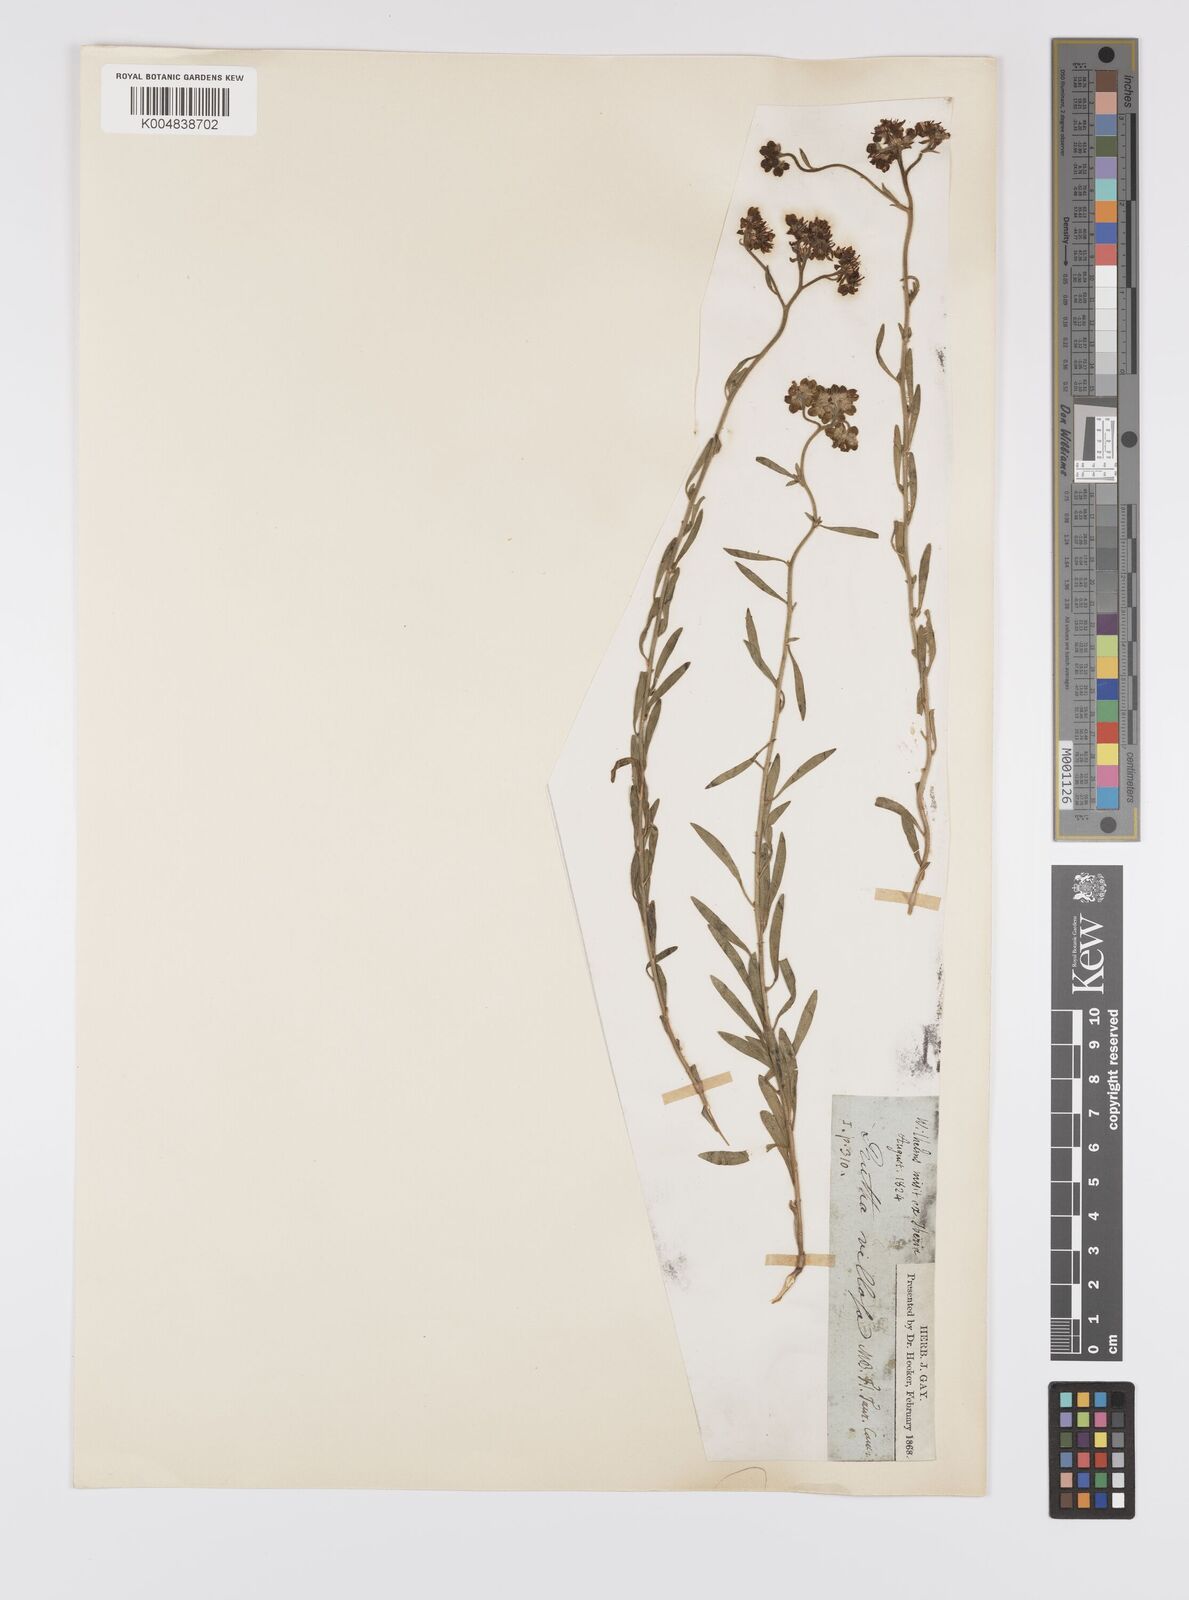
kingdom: Plantae
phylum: Tracheophyta
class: Magnoliopsida
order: Sapindales
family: Rutaceae
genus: Haplophyllum
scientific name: Haplophyllum villosum
